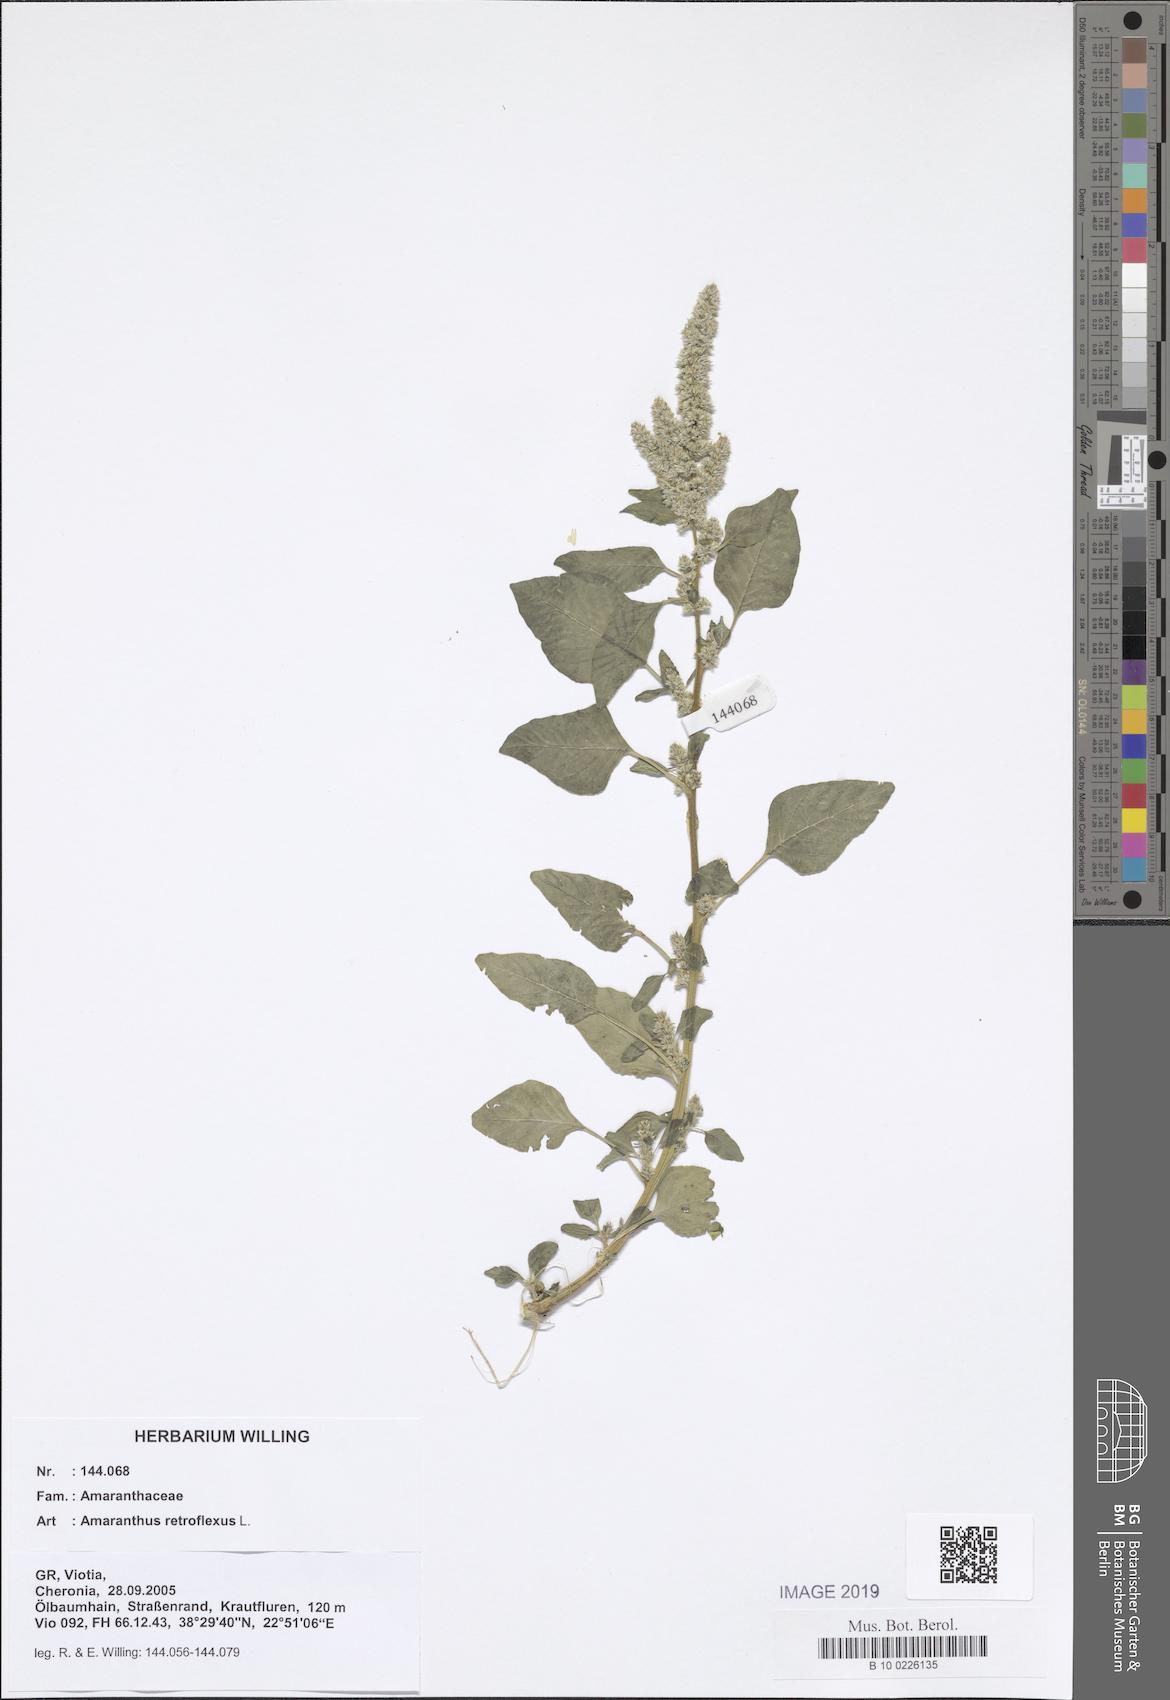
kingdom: Plantae
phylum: Tracheophyta
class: Magnoliopsida
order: Caryophyllales
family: Amaranthaceae
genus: Amaranthus
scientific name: Amaranthus retroflexus
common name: Redroot amaranth
